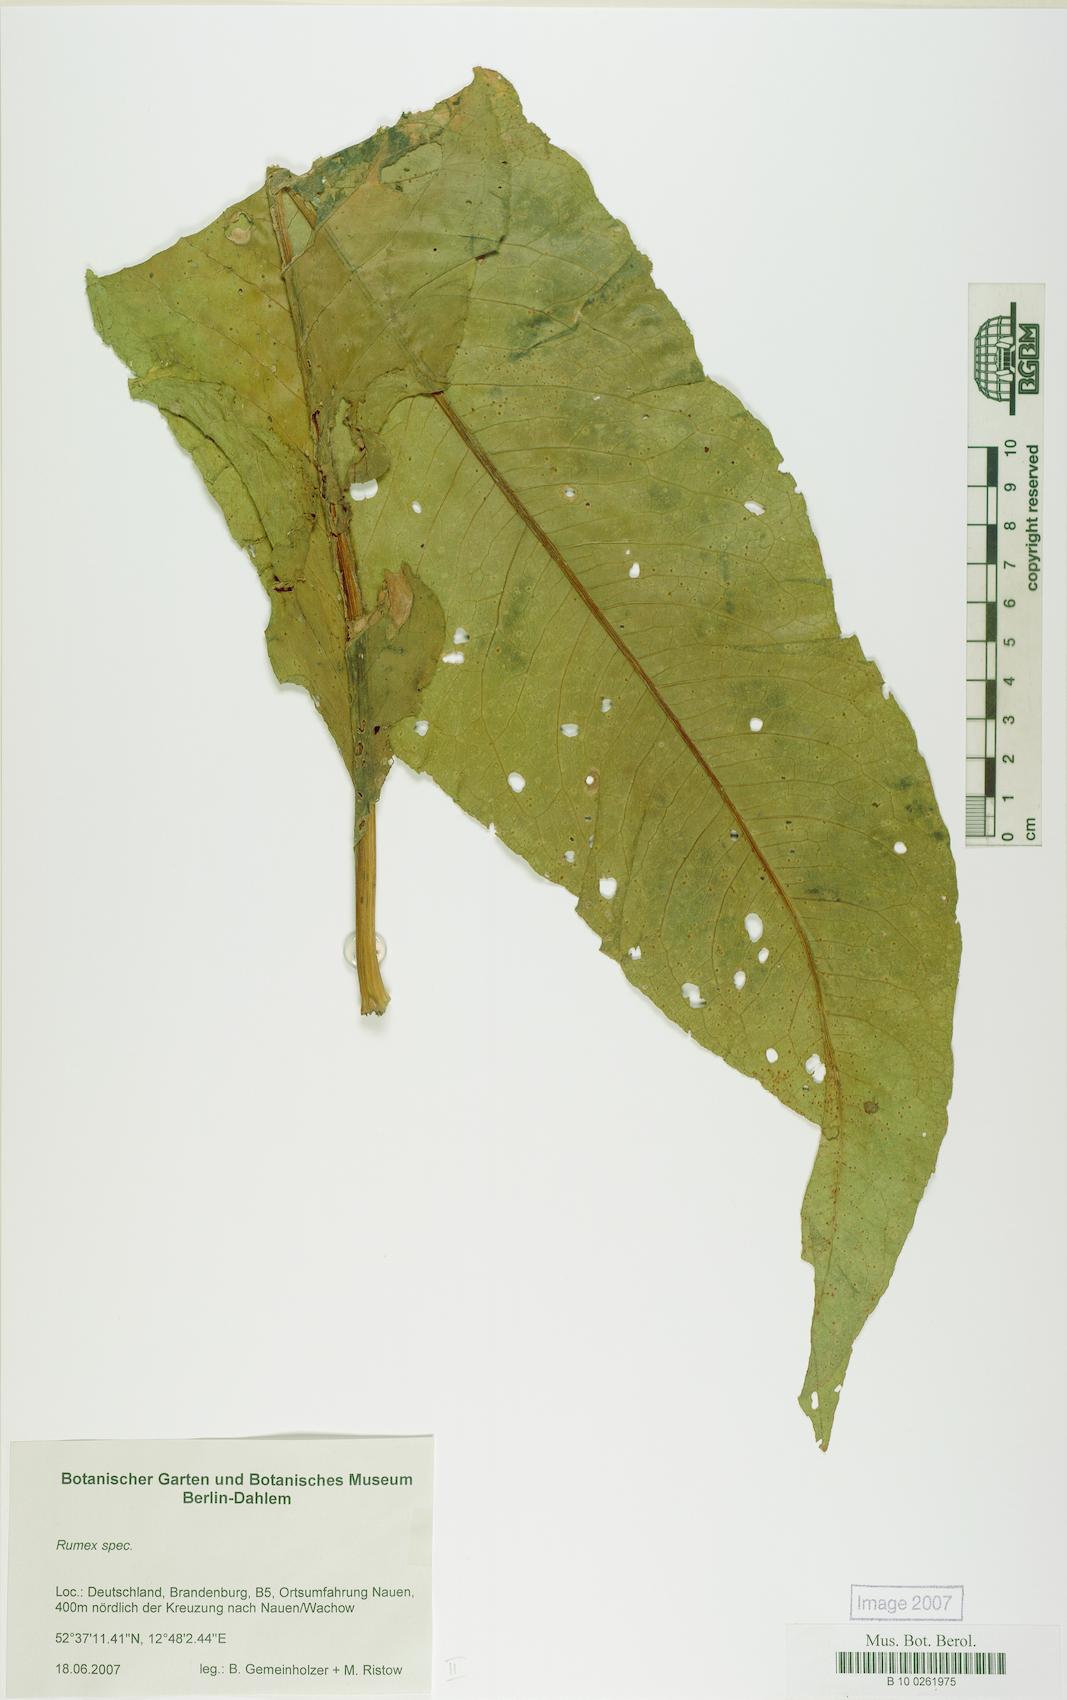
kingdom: Plantae
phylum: Tracheophyta
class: Magnoliopsida
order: Caryophyllales
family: Polygonaceae
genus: Rumex
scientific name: Rumex
